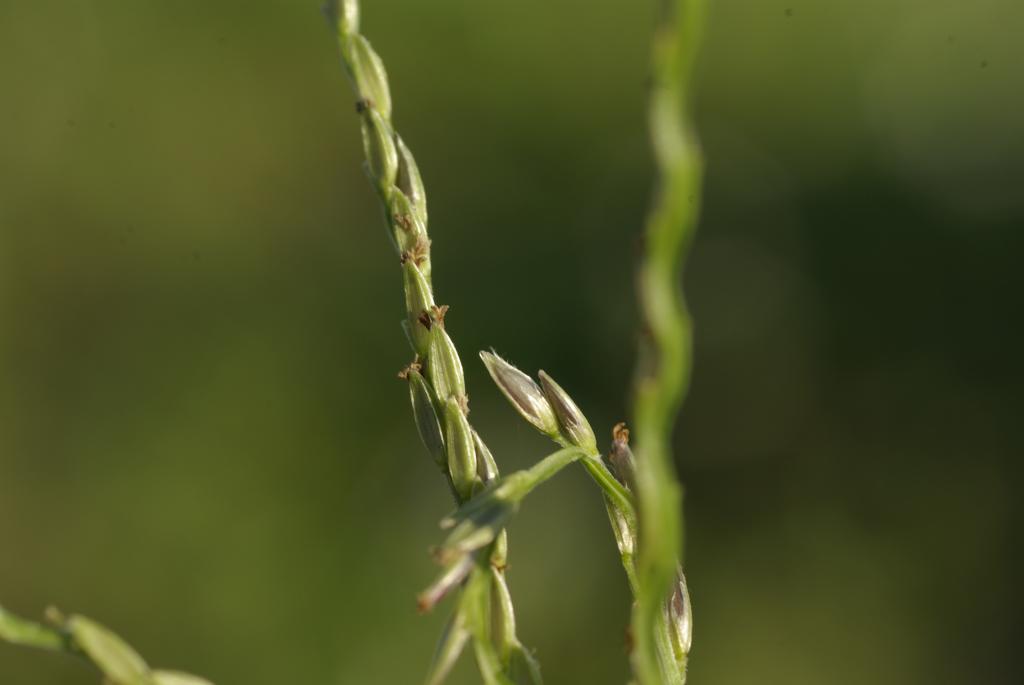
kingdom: Plantae
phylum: Tracheophyta
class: Liliopsida
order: Poales
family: Poaceae
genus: Digitaria
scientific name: Digitaria setigera
